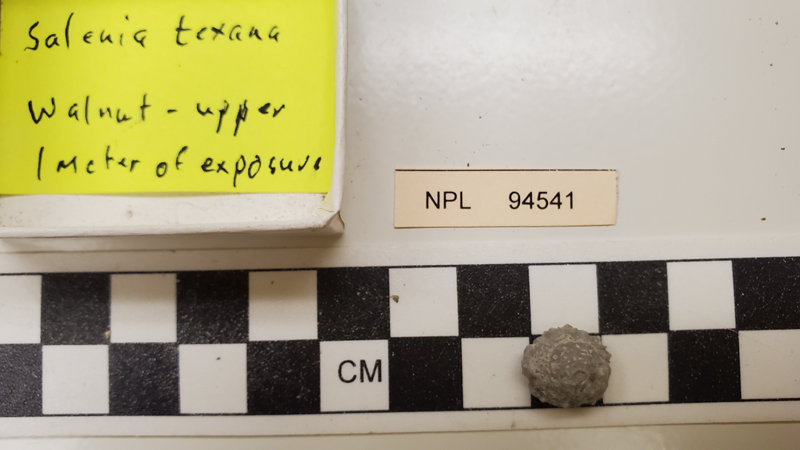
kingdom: Animalia
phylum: Echinodermata
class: Echinoidea
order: Salenioida
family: Saleniidae
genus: Salenia
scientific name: Salenia texana
